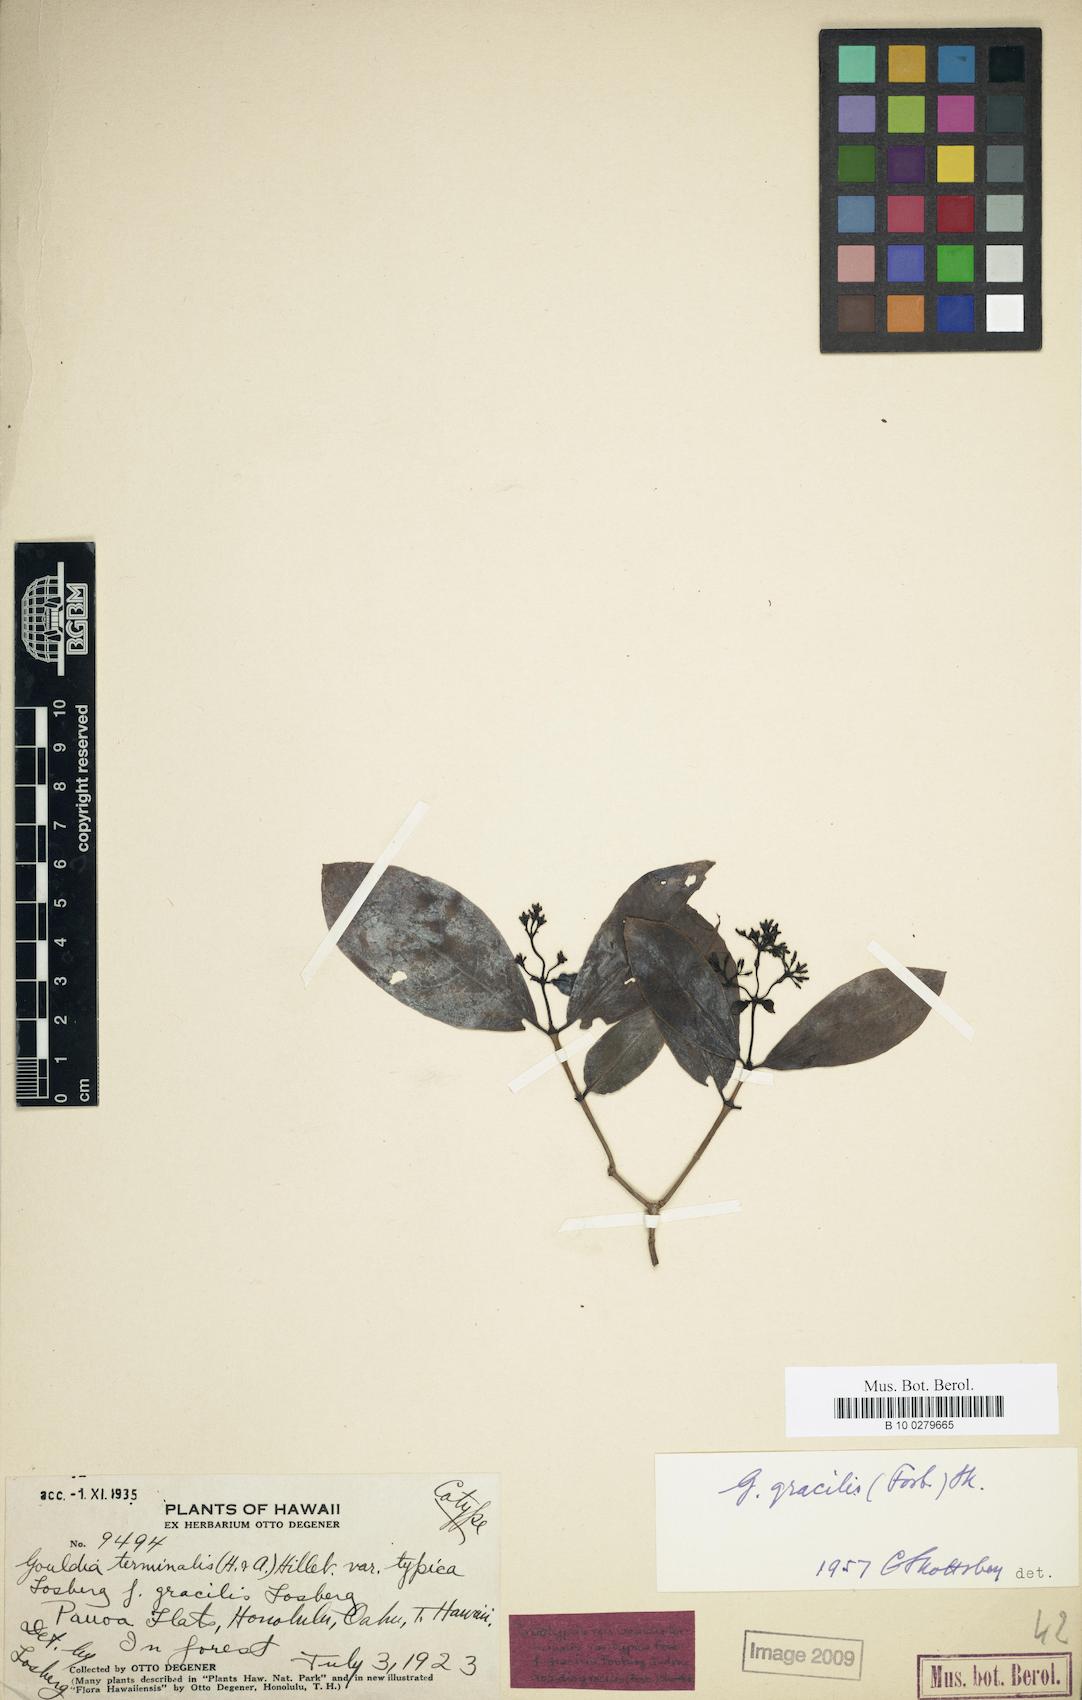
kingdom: Plantae
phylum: Tracheophyta
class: Magnoliopsida
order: Gentianales
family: Rubiaceae
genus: Kadua
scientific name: Kadua affinis
